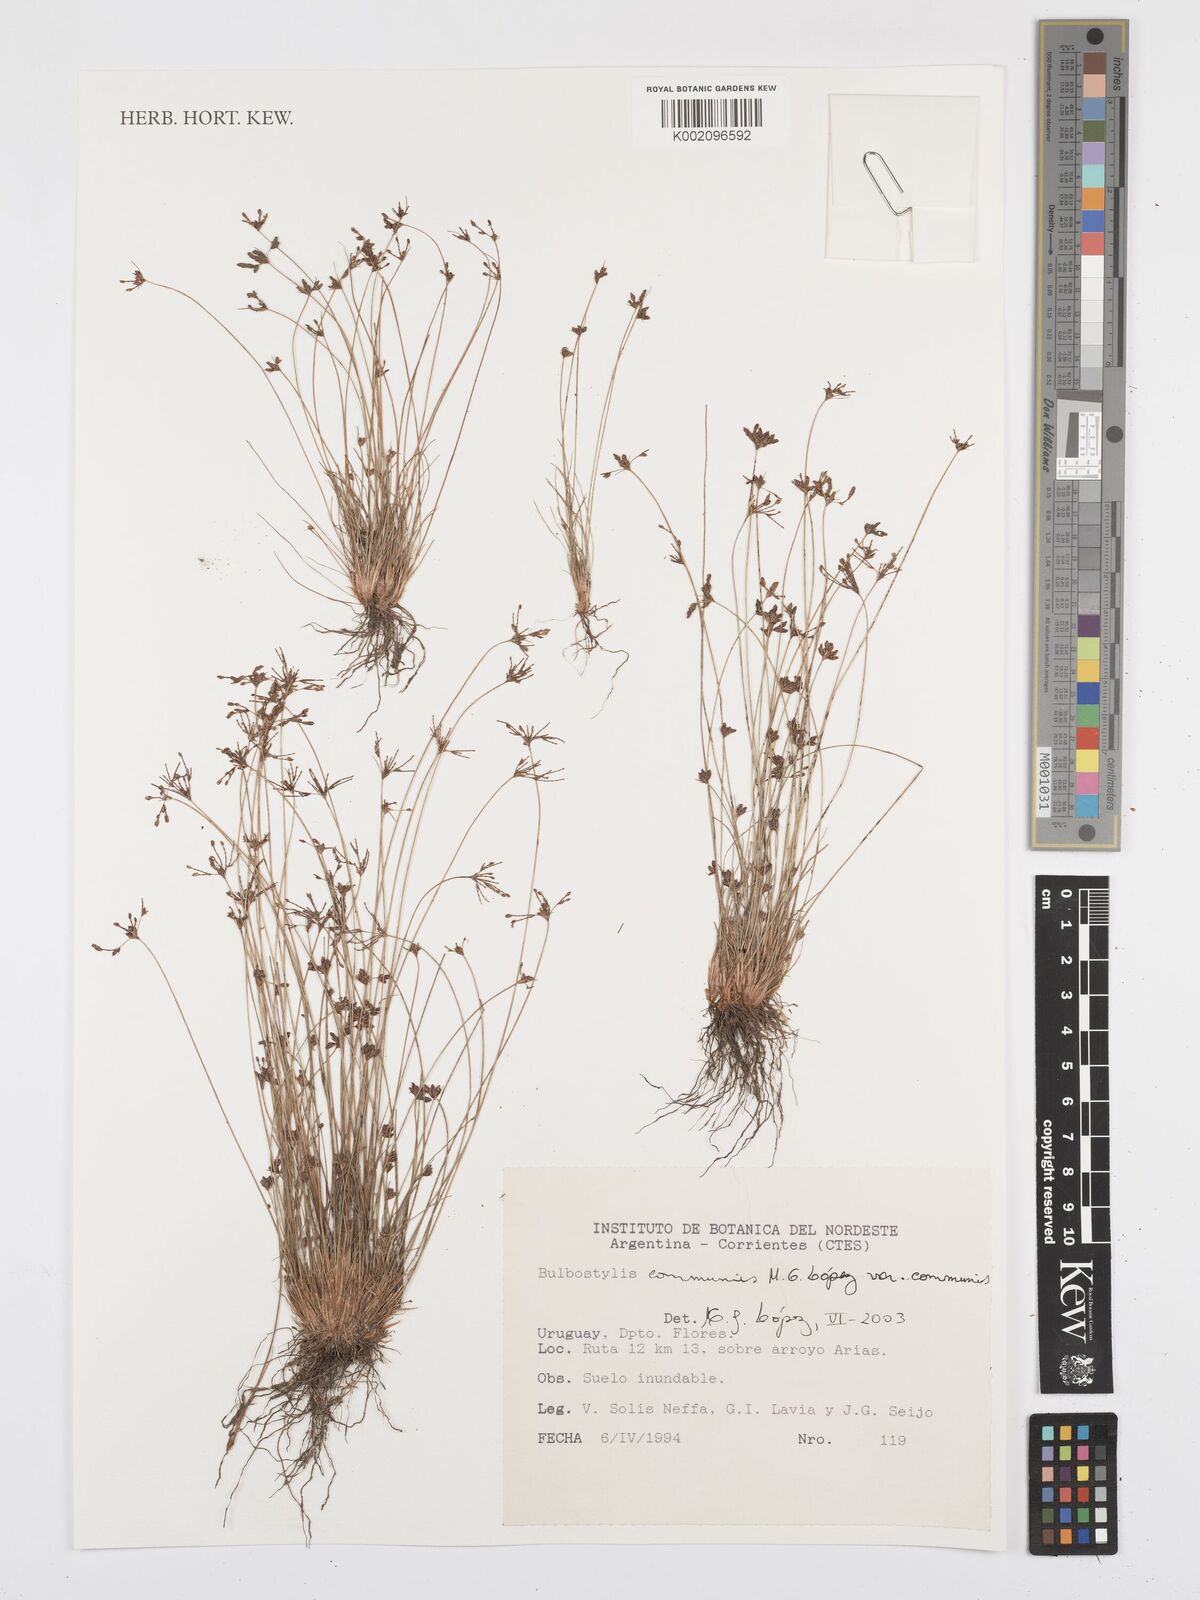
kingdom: Plantae
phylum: Tracheophyta
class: Liliopsida
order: Poales
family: Cyperaceae
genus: Bulbostylis
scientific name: Bulbostylis communis
